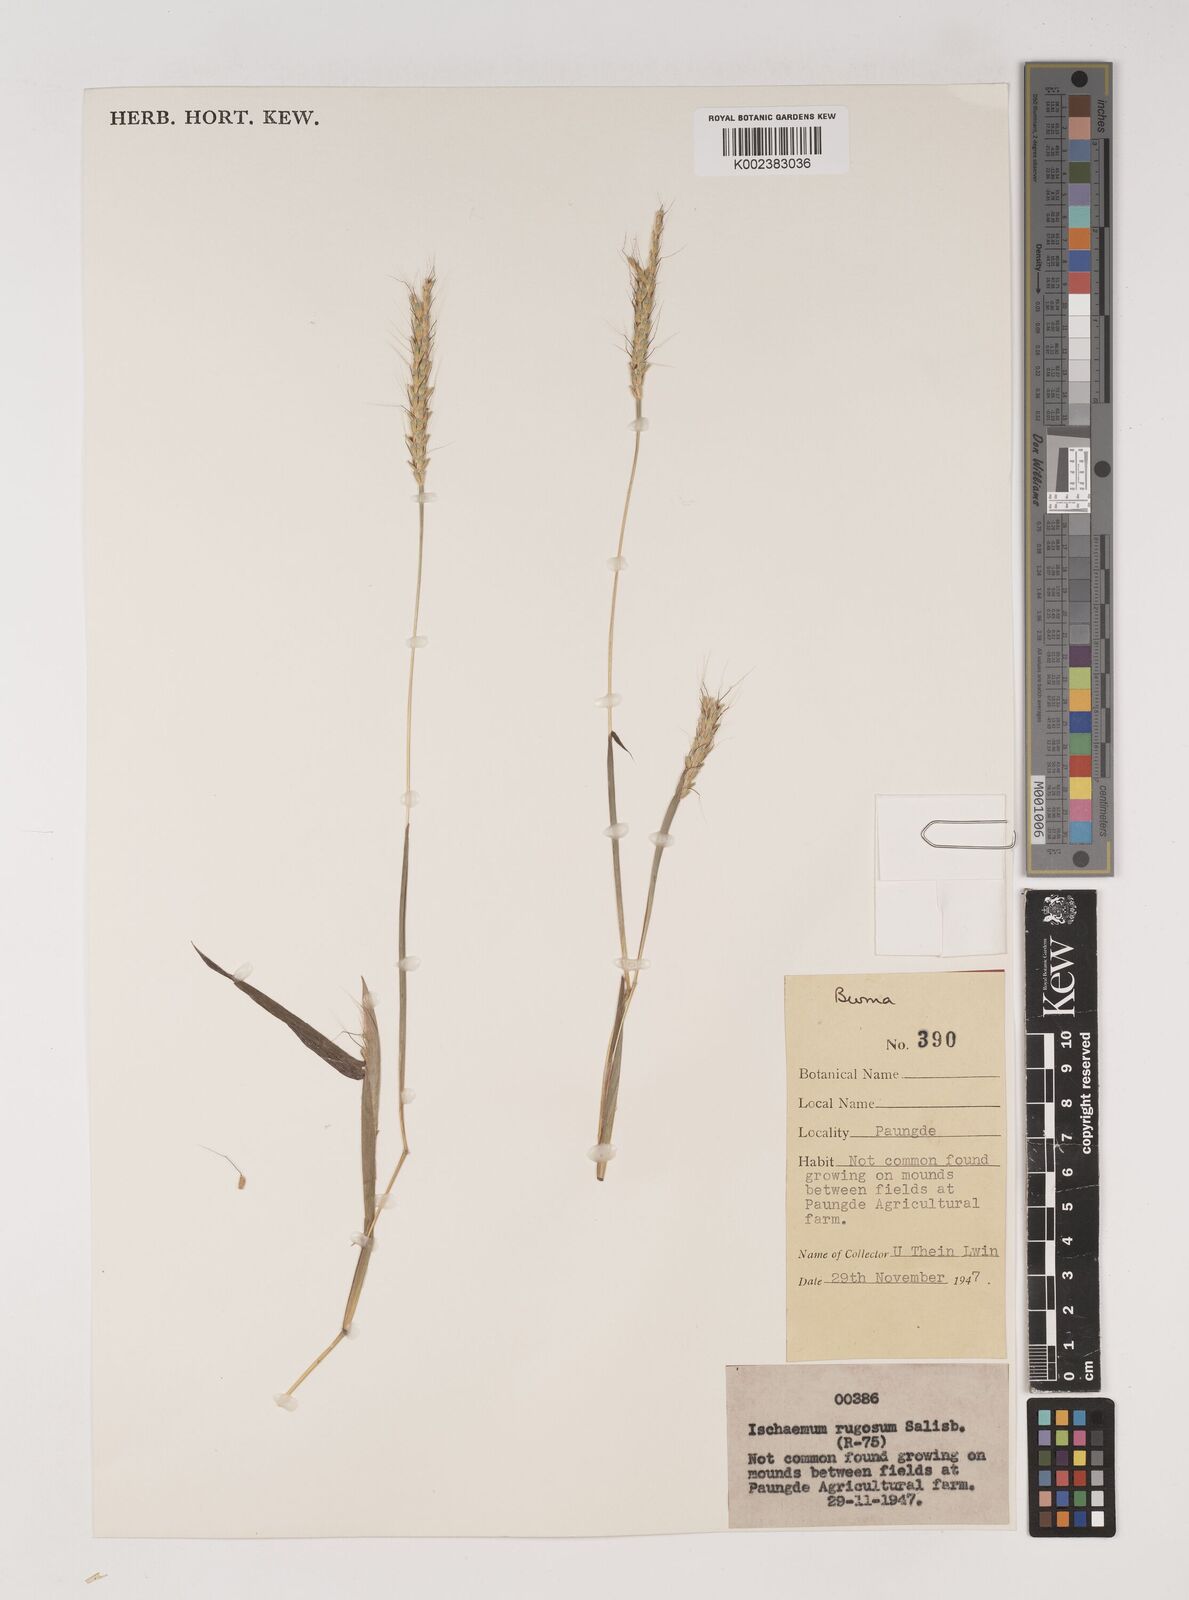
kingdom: Plantae
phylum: Tracheophyta
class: Liliopsida
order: Poales
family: Poaceae
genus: Ischaemum
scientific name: Ischaemum rugosum
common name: Saramatta grass
